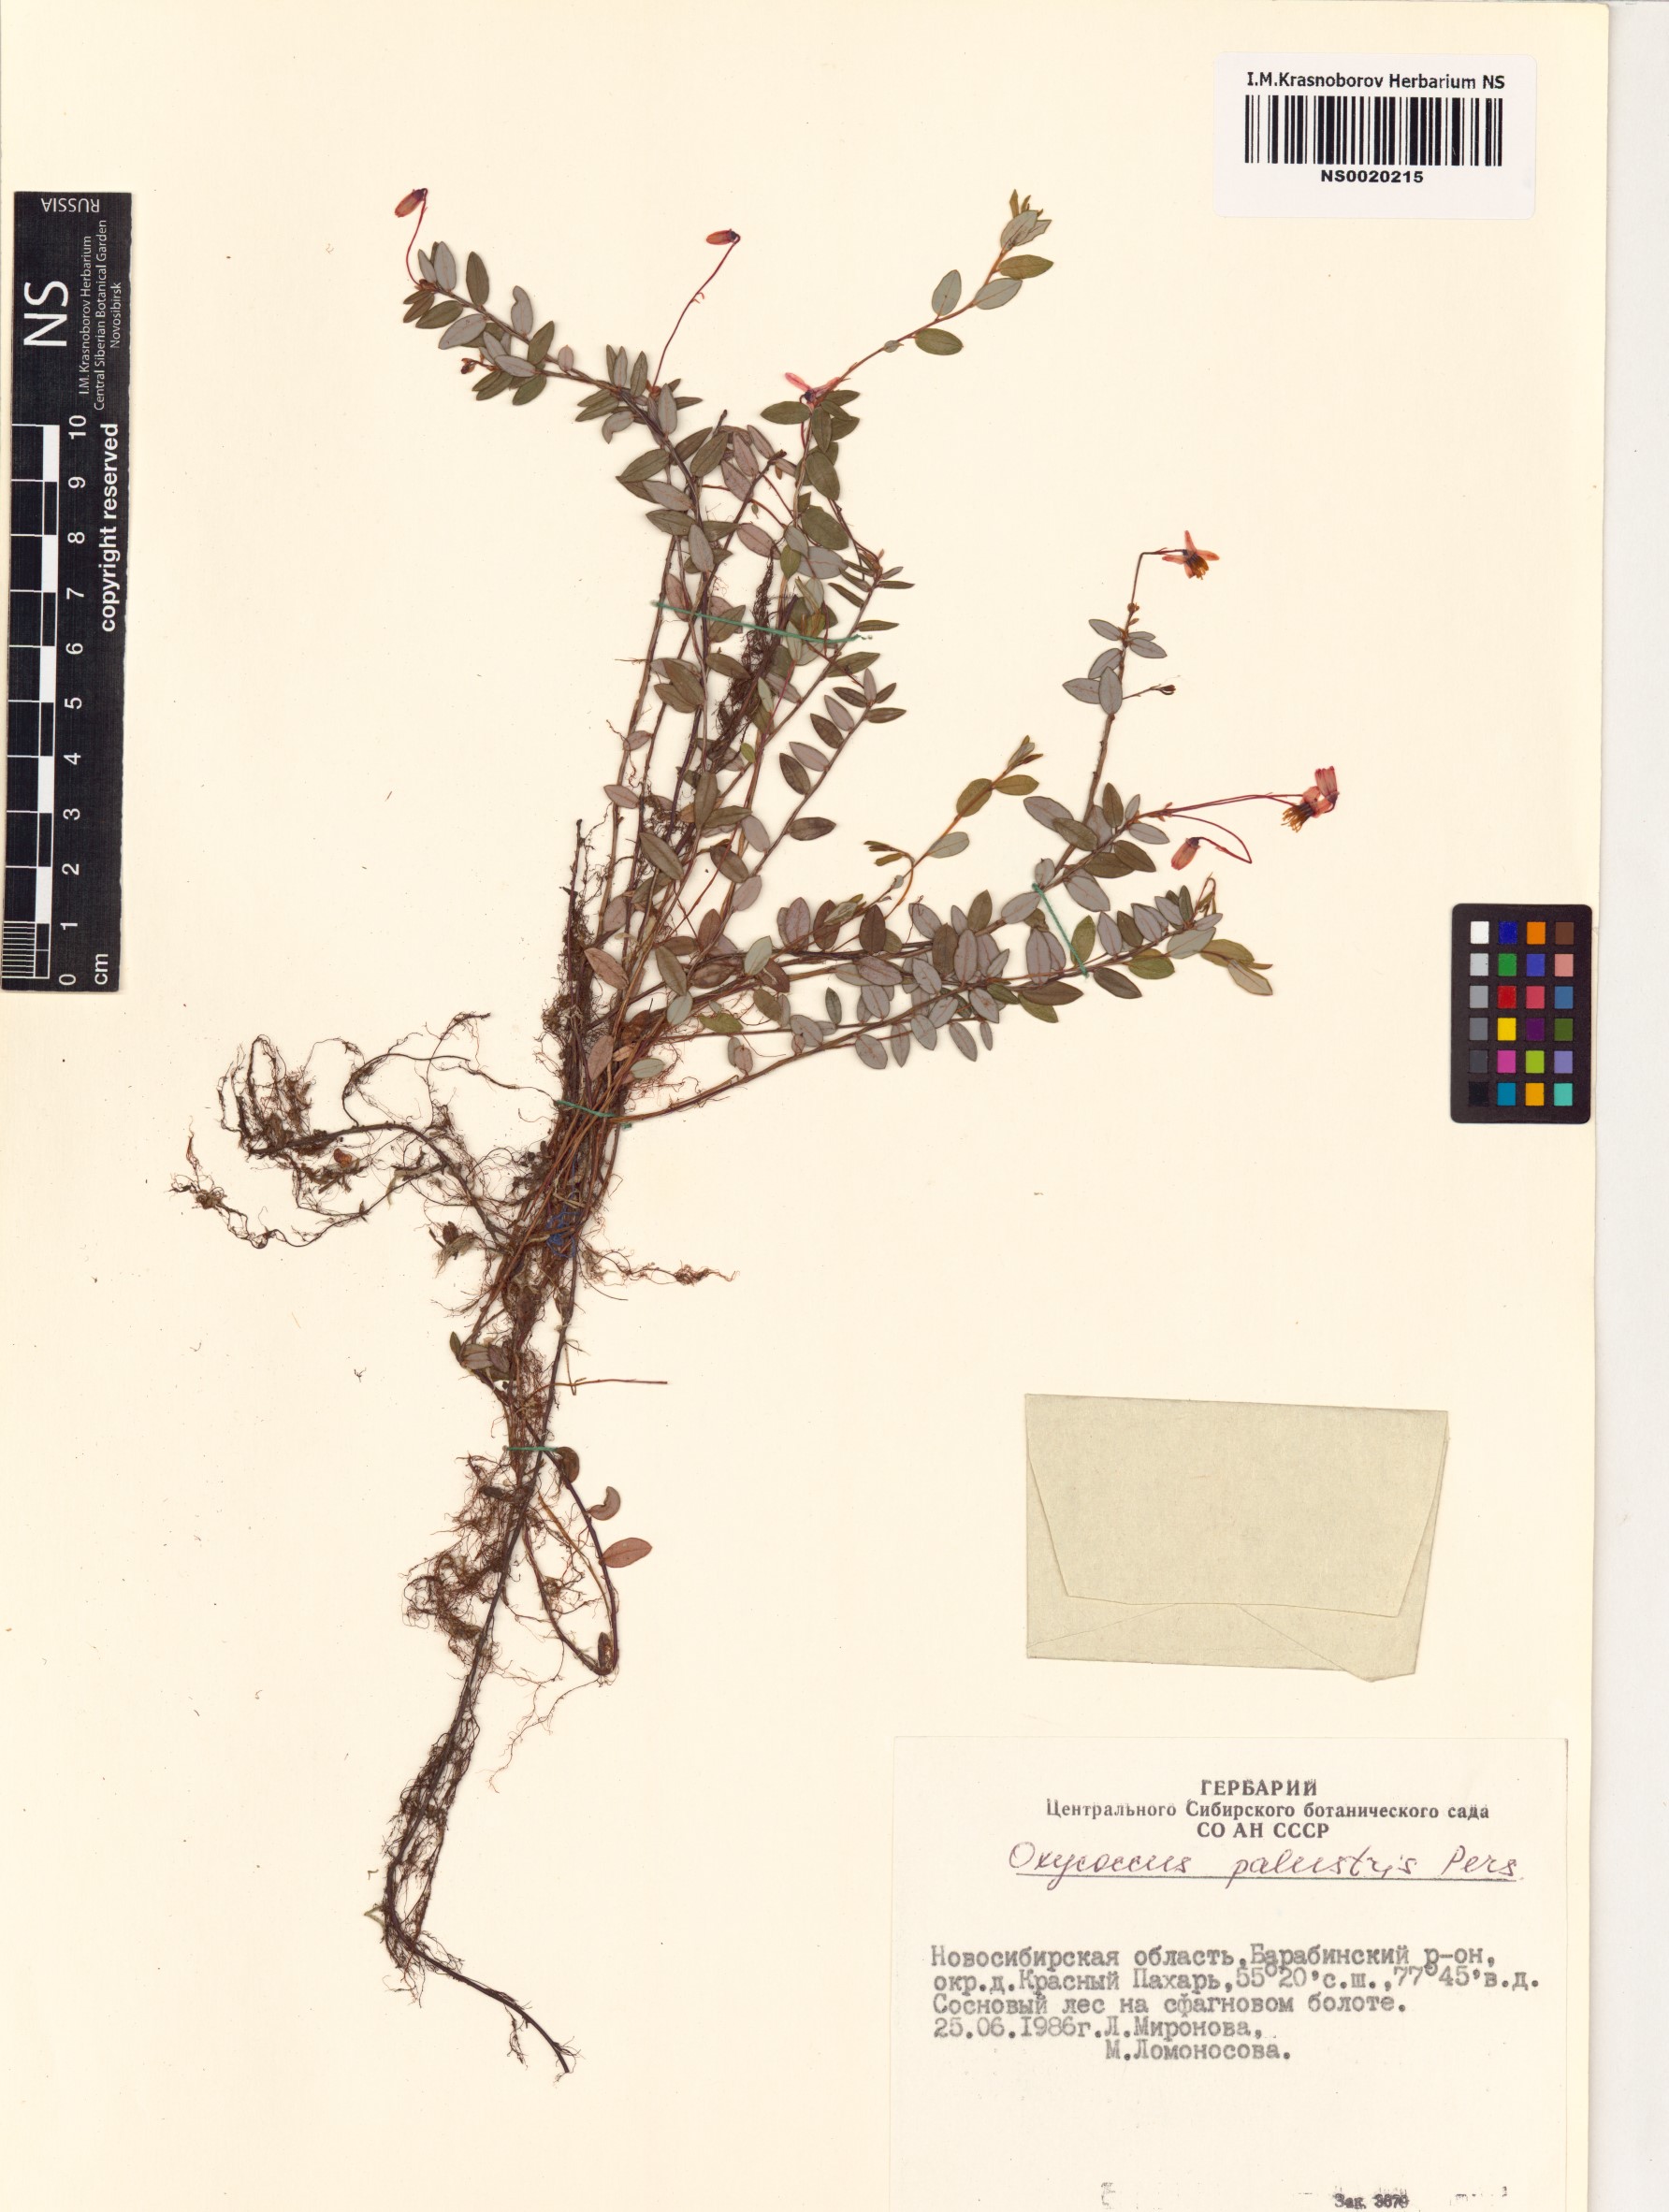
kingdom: Plantae
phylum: Tracheophyta
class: Magnoliopsida
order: Ericales
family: Ericaceae
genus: Vaccinium
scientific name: Vaccinium oxycoccos
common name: Cranberry
